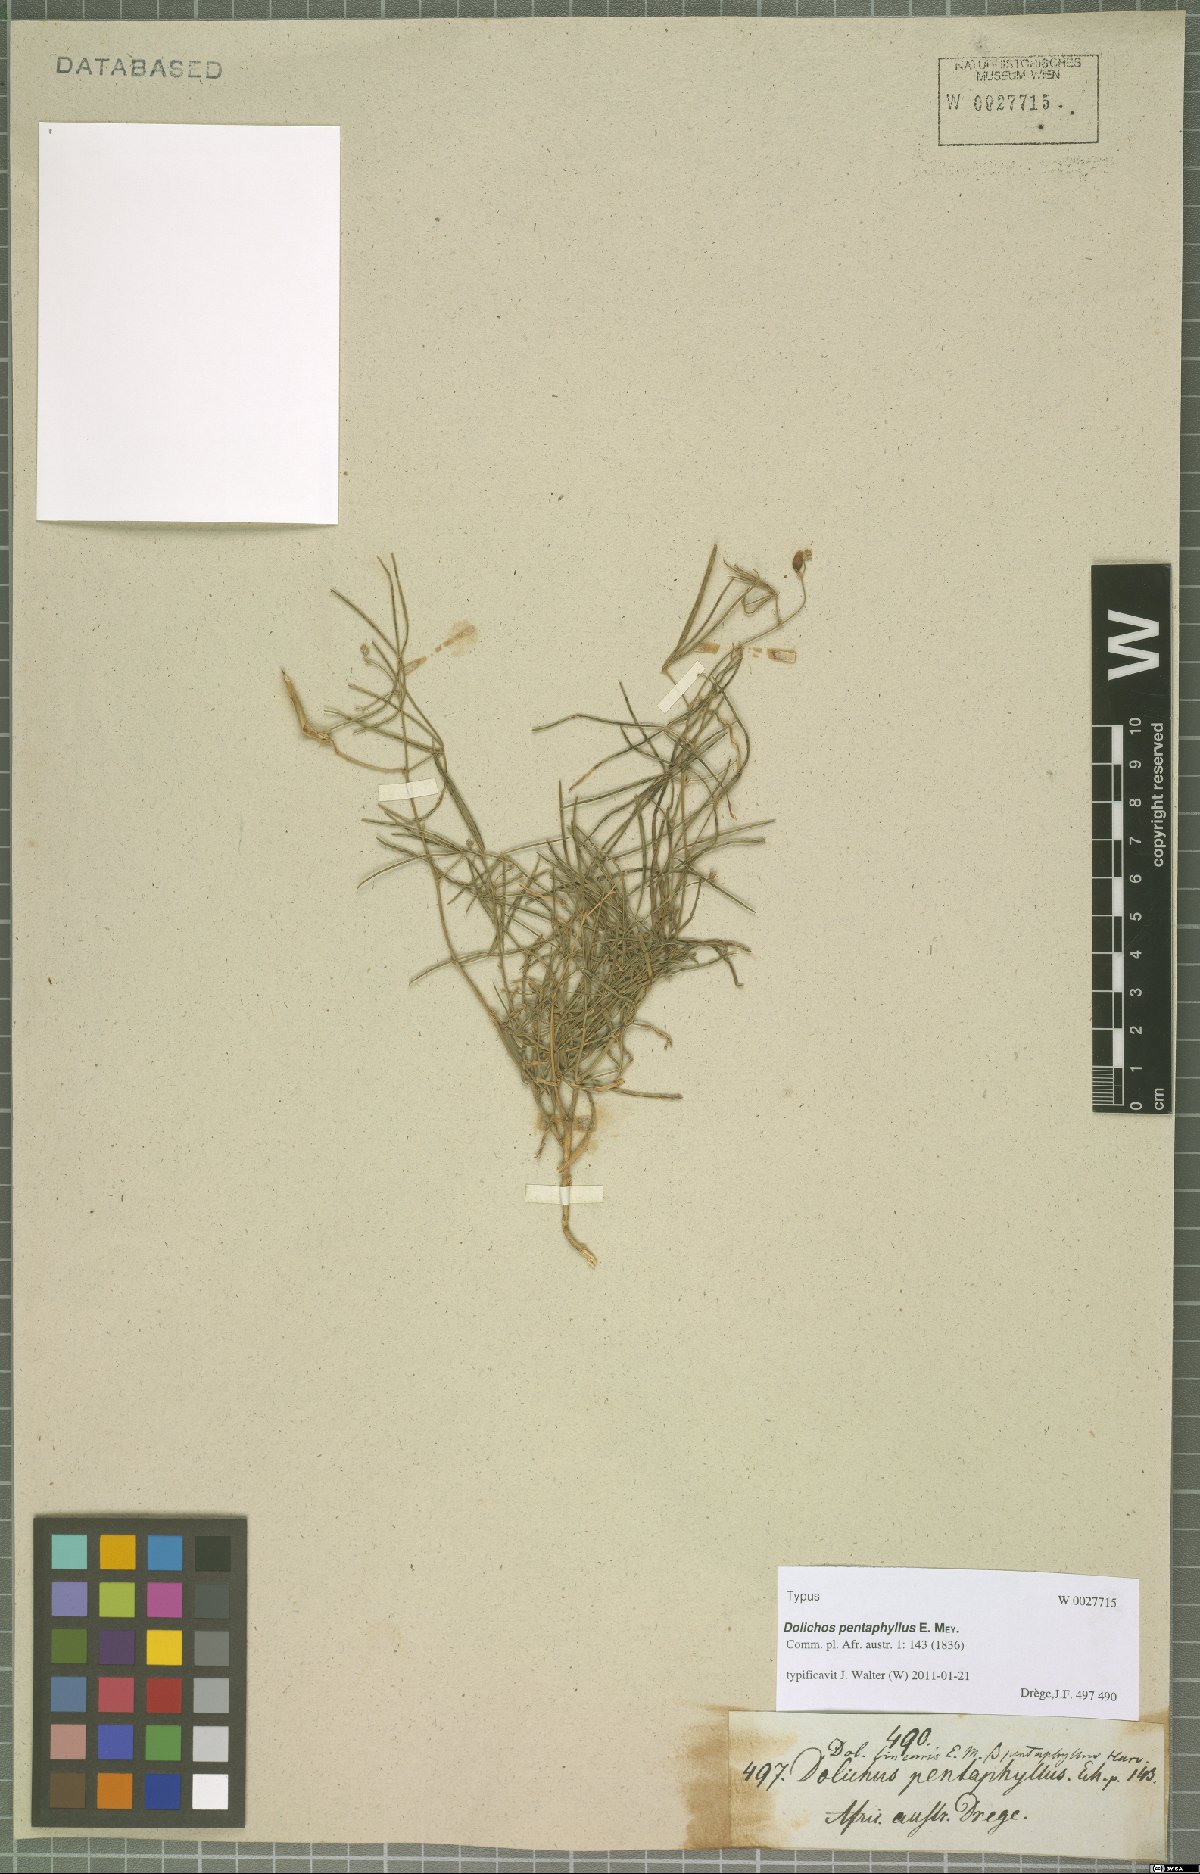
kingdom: Plantae
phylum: Tracheophyta
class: Magnoliopsida
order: Fabales
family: Fabaceae
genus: Dolichos
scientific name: Dolichos linearis
